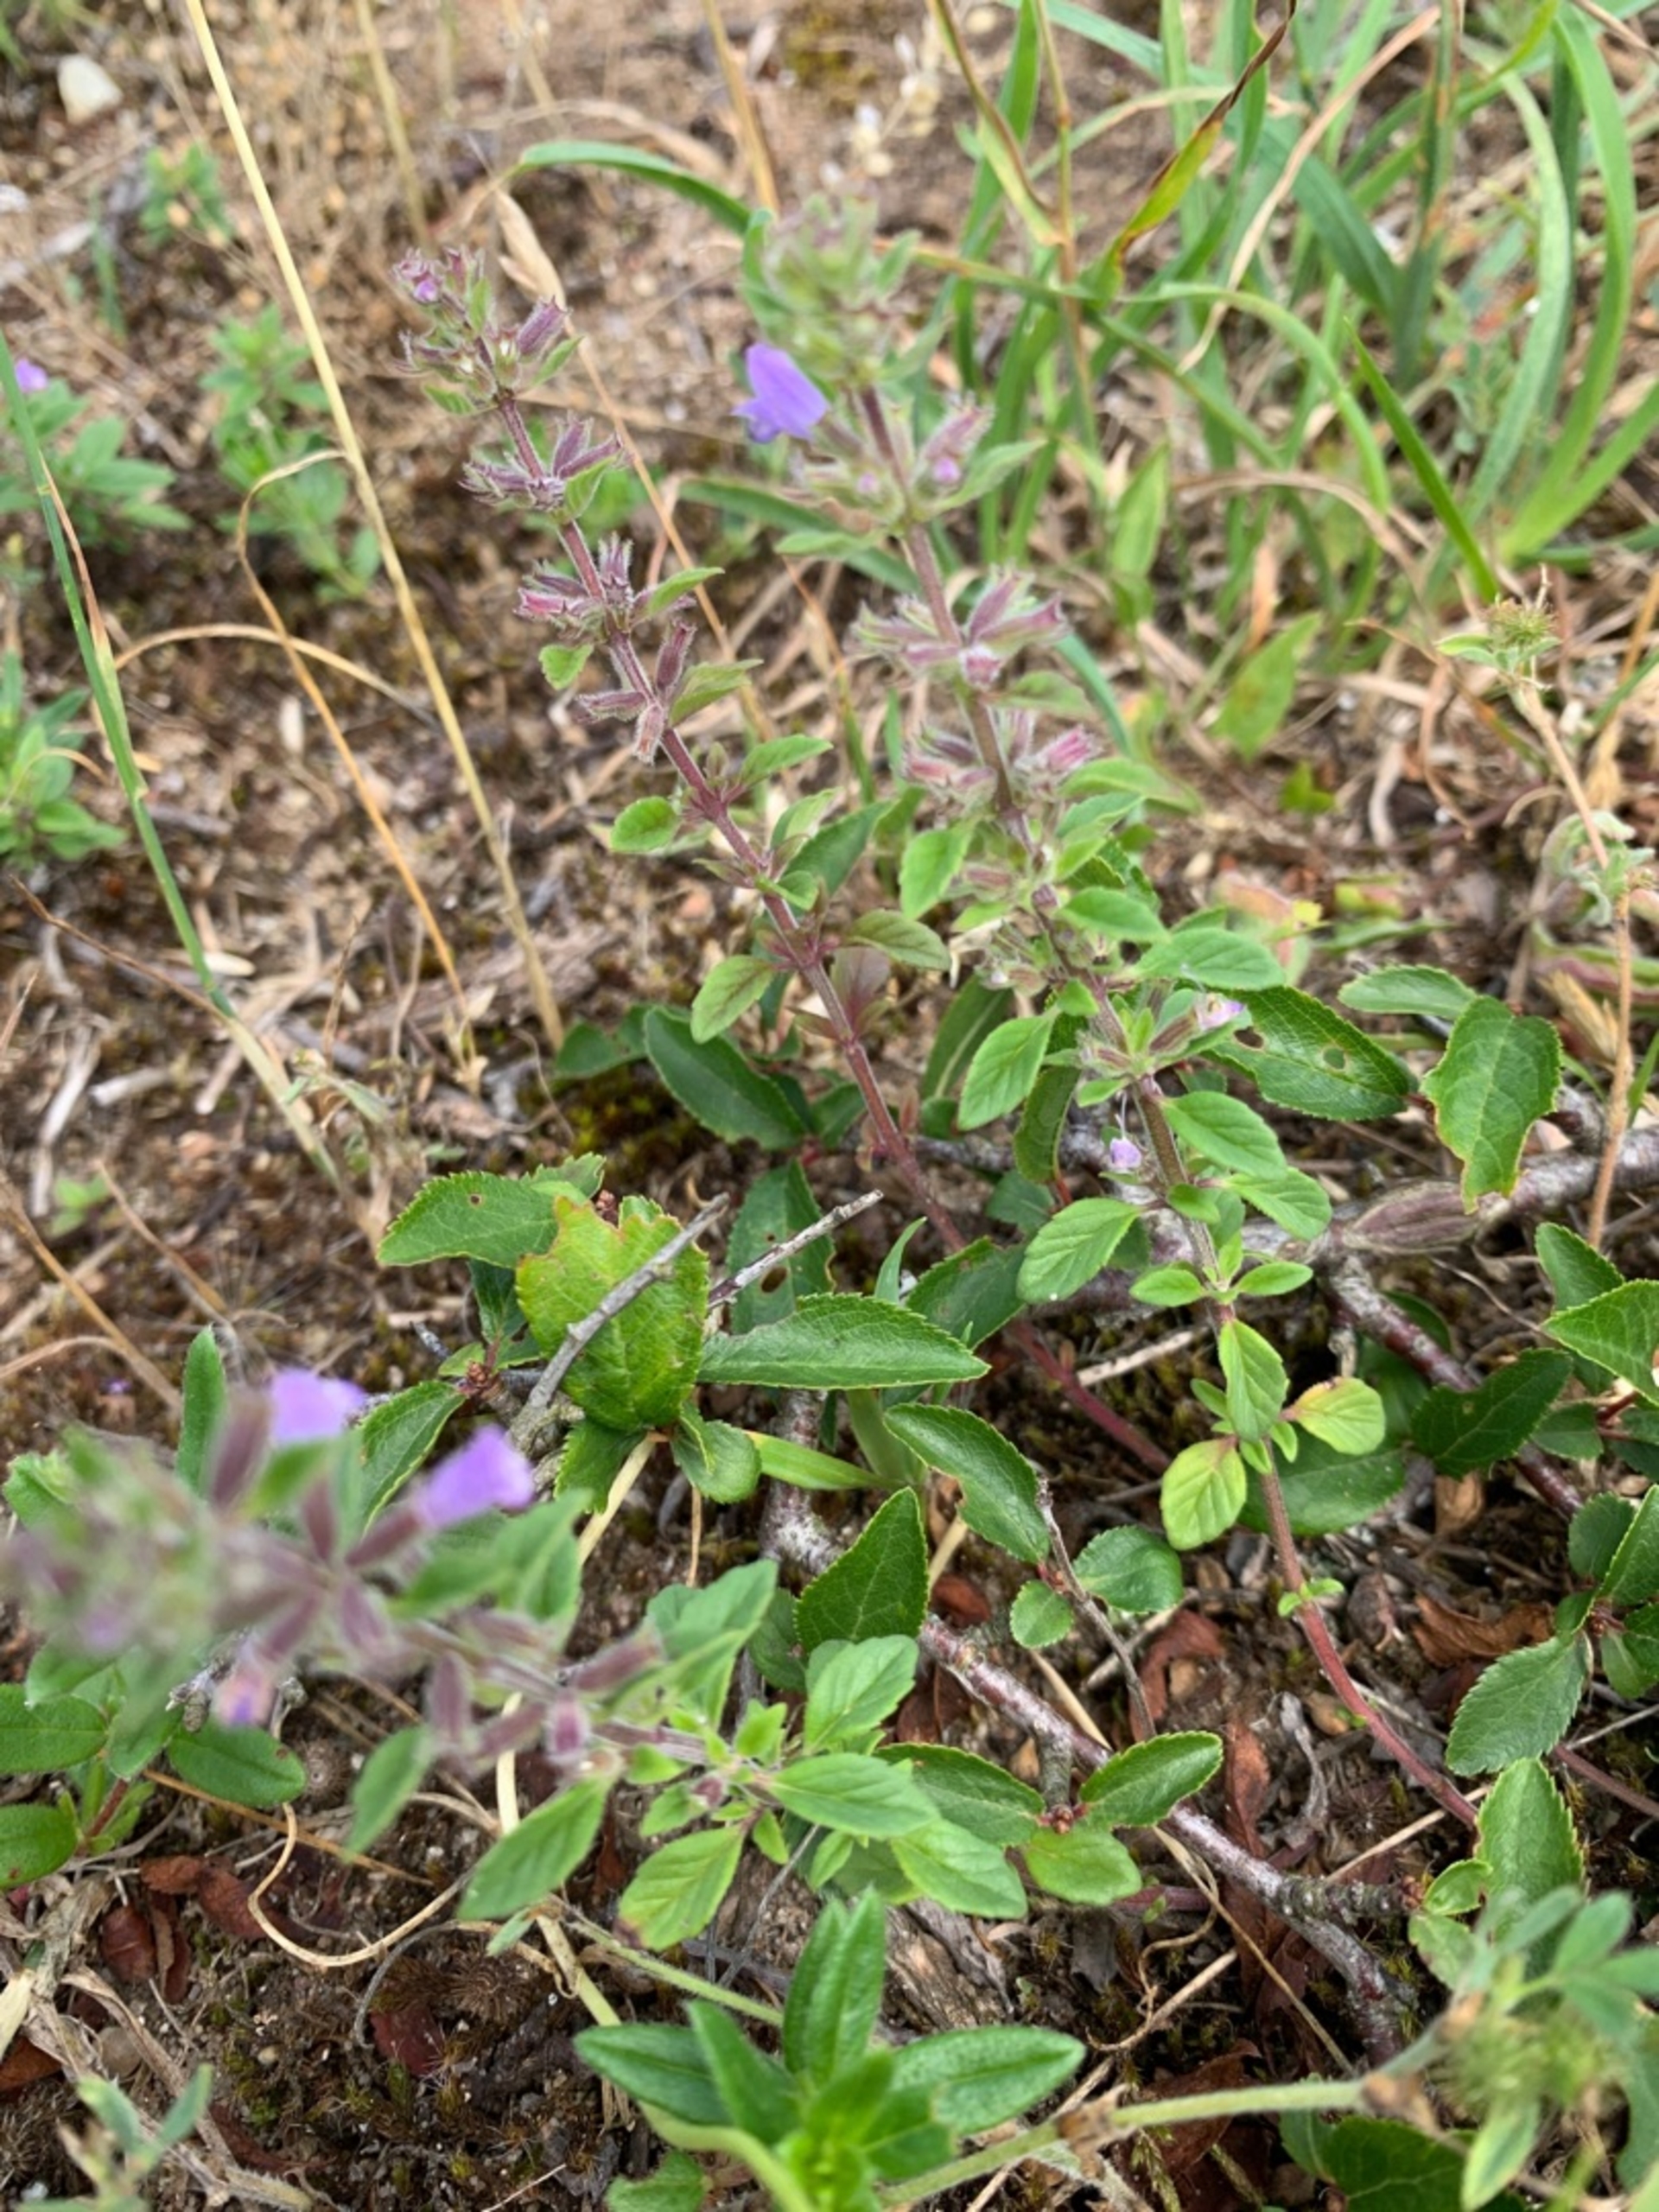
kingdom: Plantae
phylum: Tracheophyta
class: Magnoliopsida
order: Lamiales
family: Lamiaceae
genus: Clinopodium
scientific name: Clinopodium acinos
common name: Voldtimian
